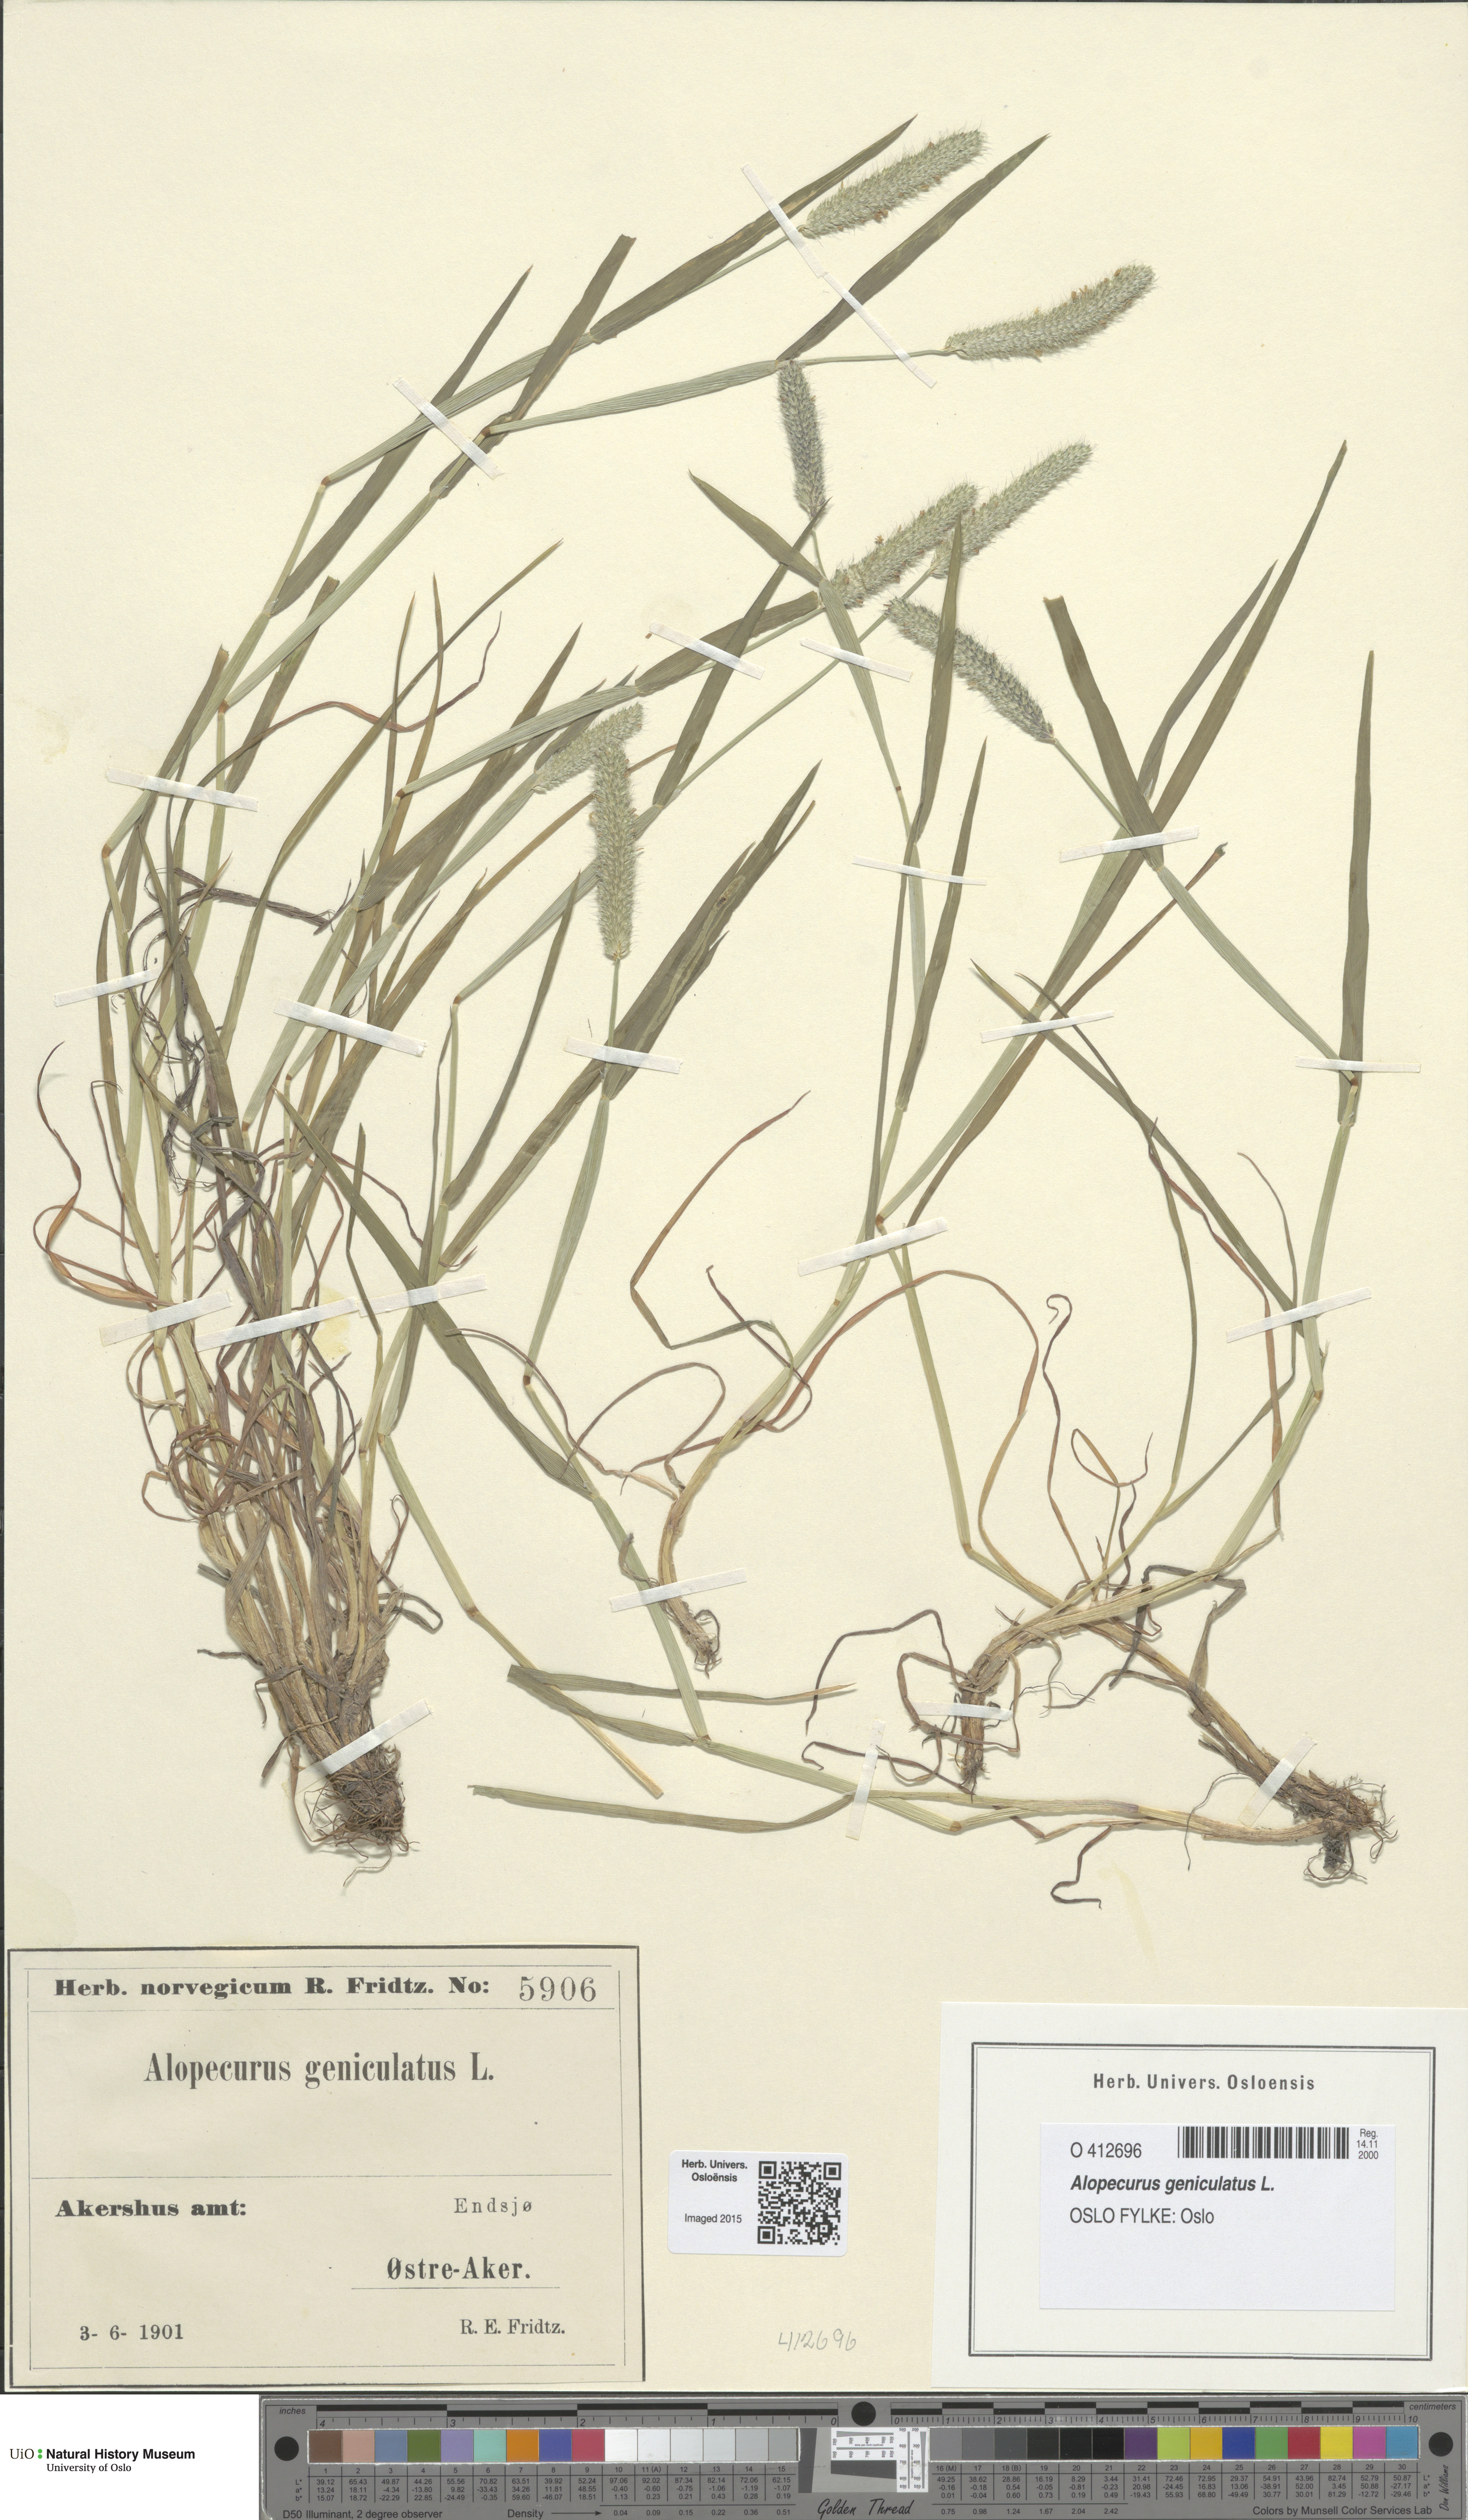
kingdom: Plantae
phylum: Tracheophyta
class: Liliopsida
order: Poales
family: Poaceae
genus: Alopecurus
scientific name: Alopecurus geniculatus
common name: Water foxtail
